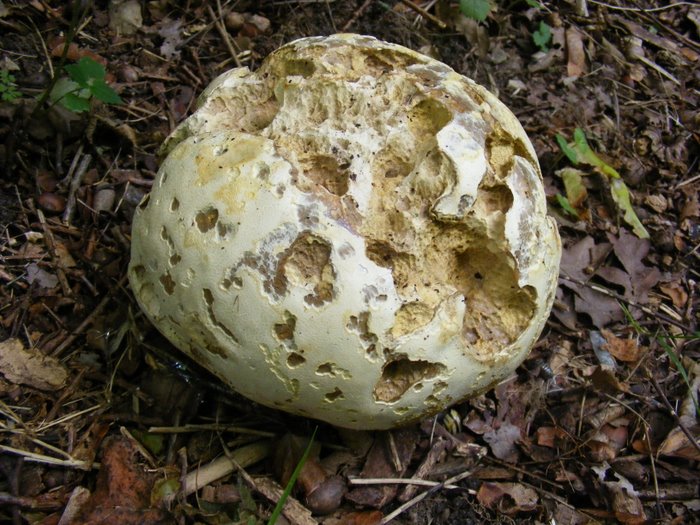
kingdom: Fungi
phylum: Basidiomycota
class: Agaricomycetes
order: Agaricales
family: Lycoperdaceae
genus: Calvatia
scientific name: Calvatia gigantea
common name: kæmpestøvbold
